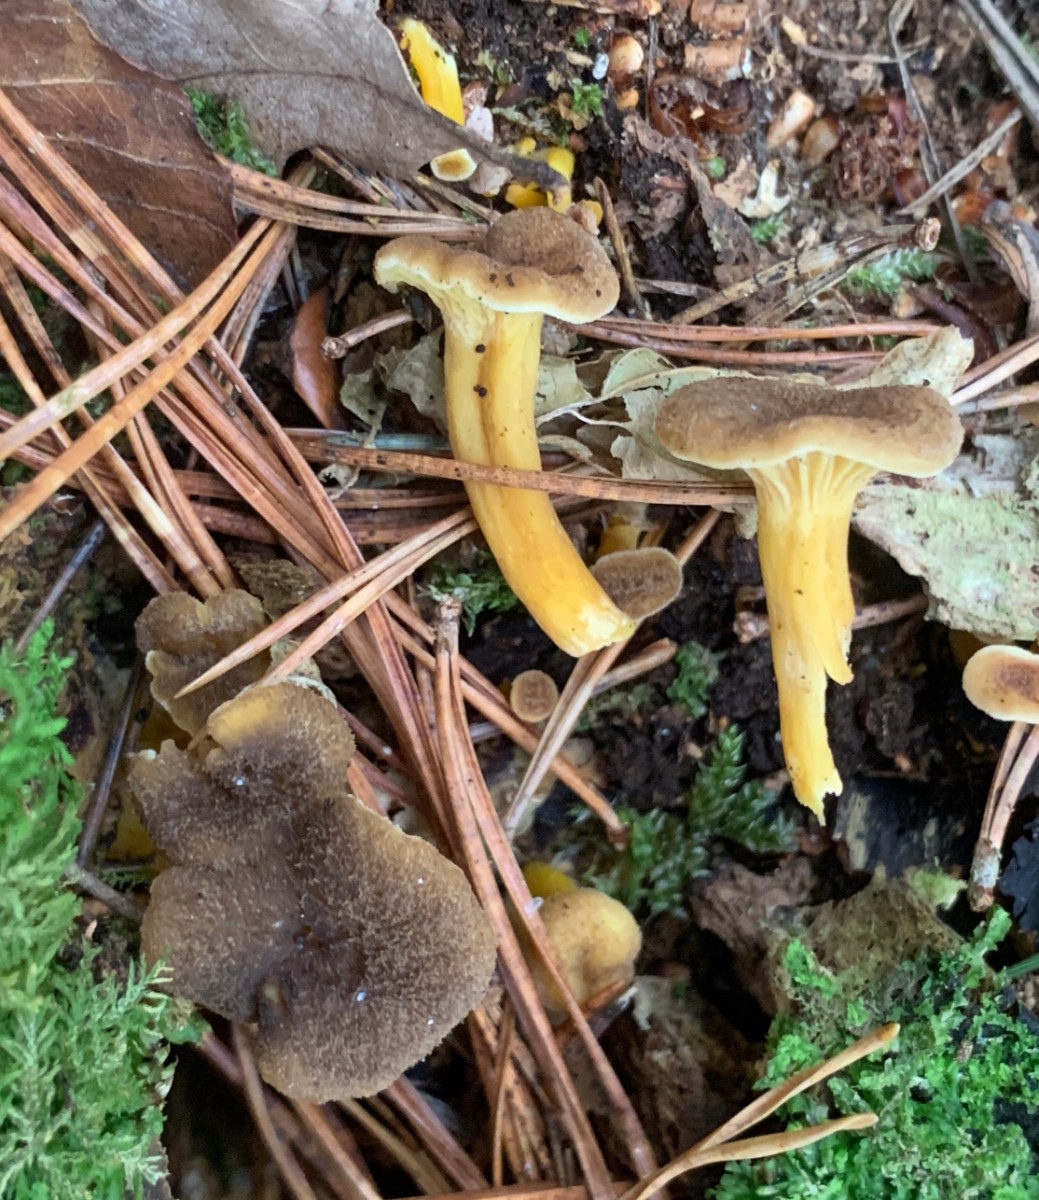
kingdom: Fungi
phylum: Basidiomycota
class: Agaricomycetes
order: Cantharellales
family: Hydnaceae
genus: Craterellus
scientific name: Craterellus tubaeformis
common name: tragt-kantarel
